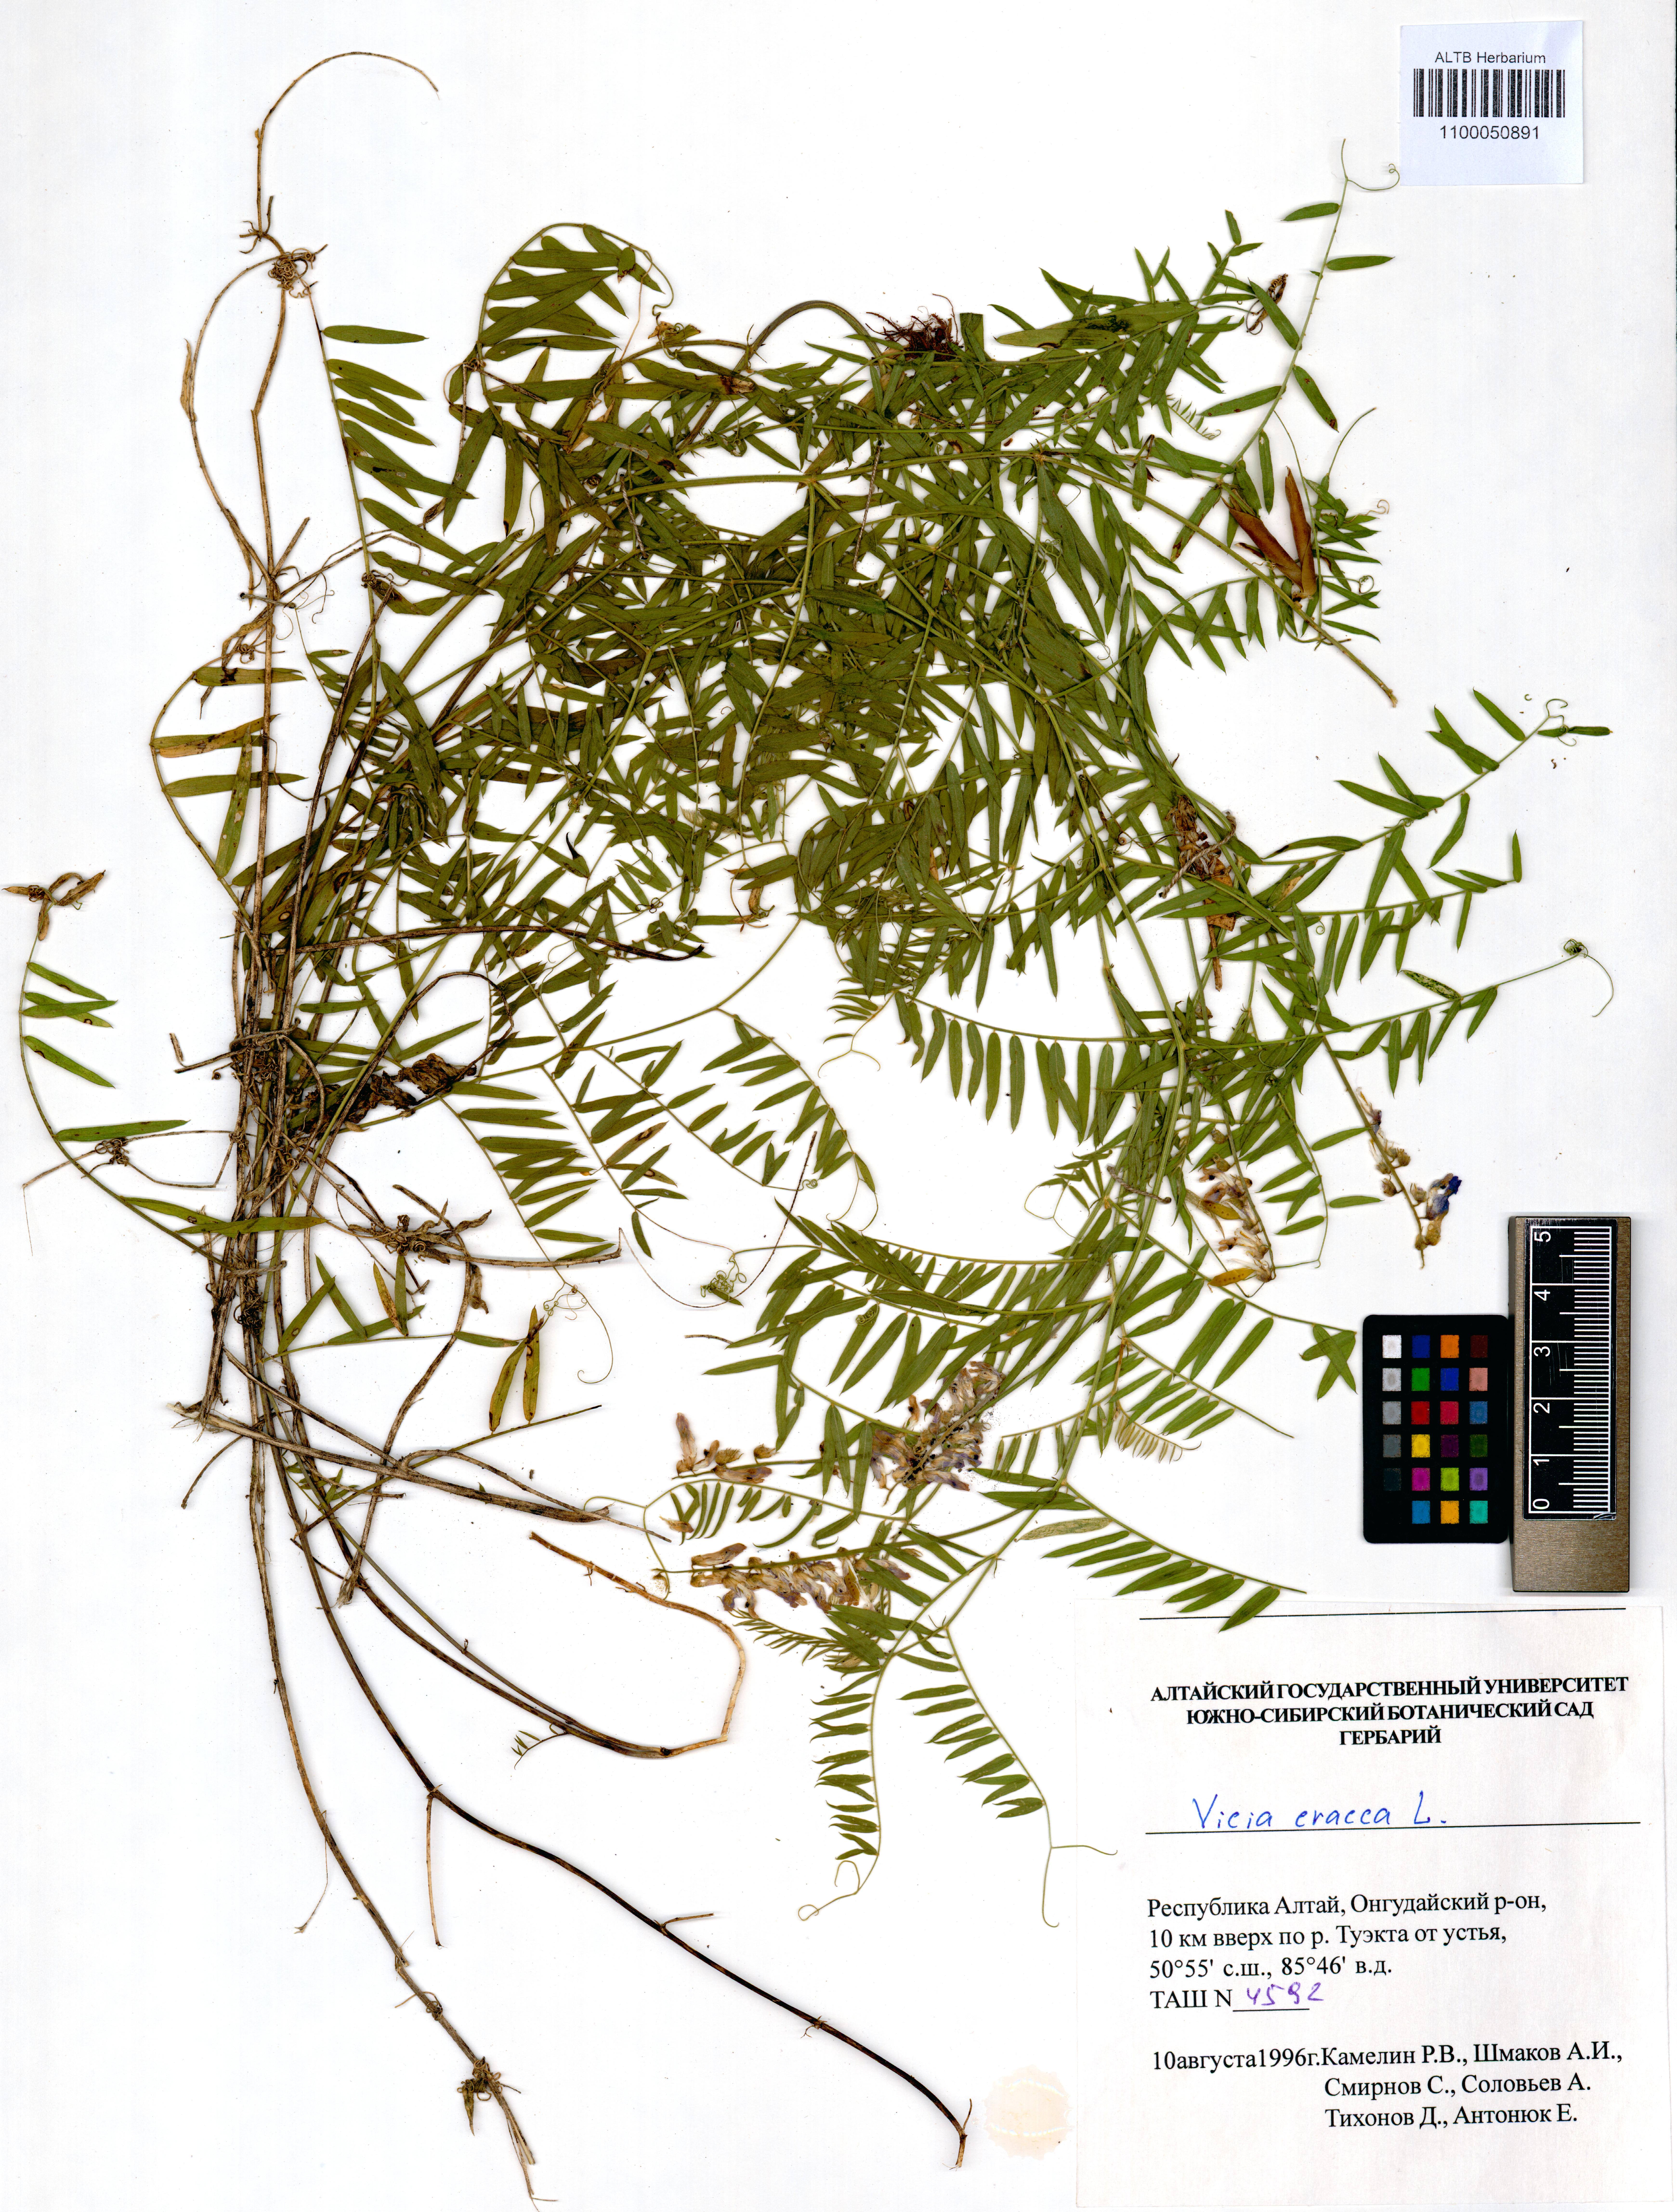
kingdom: Plantae
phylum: Tracheophyta
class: Magnoliopsida
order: Fabales
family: Fabaceae
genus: Vicia
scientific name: Vicia cracca
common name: Bird vetch
